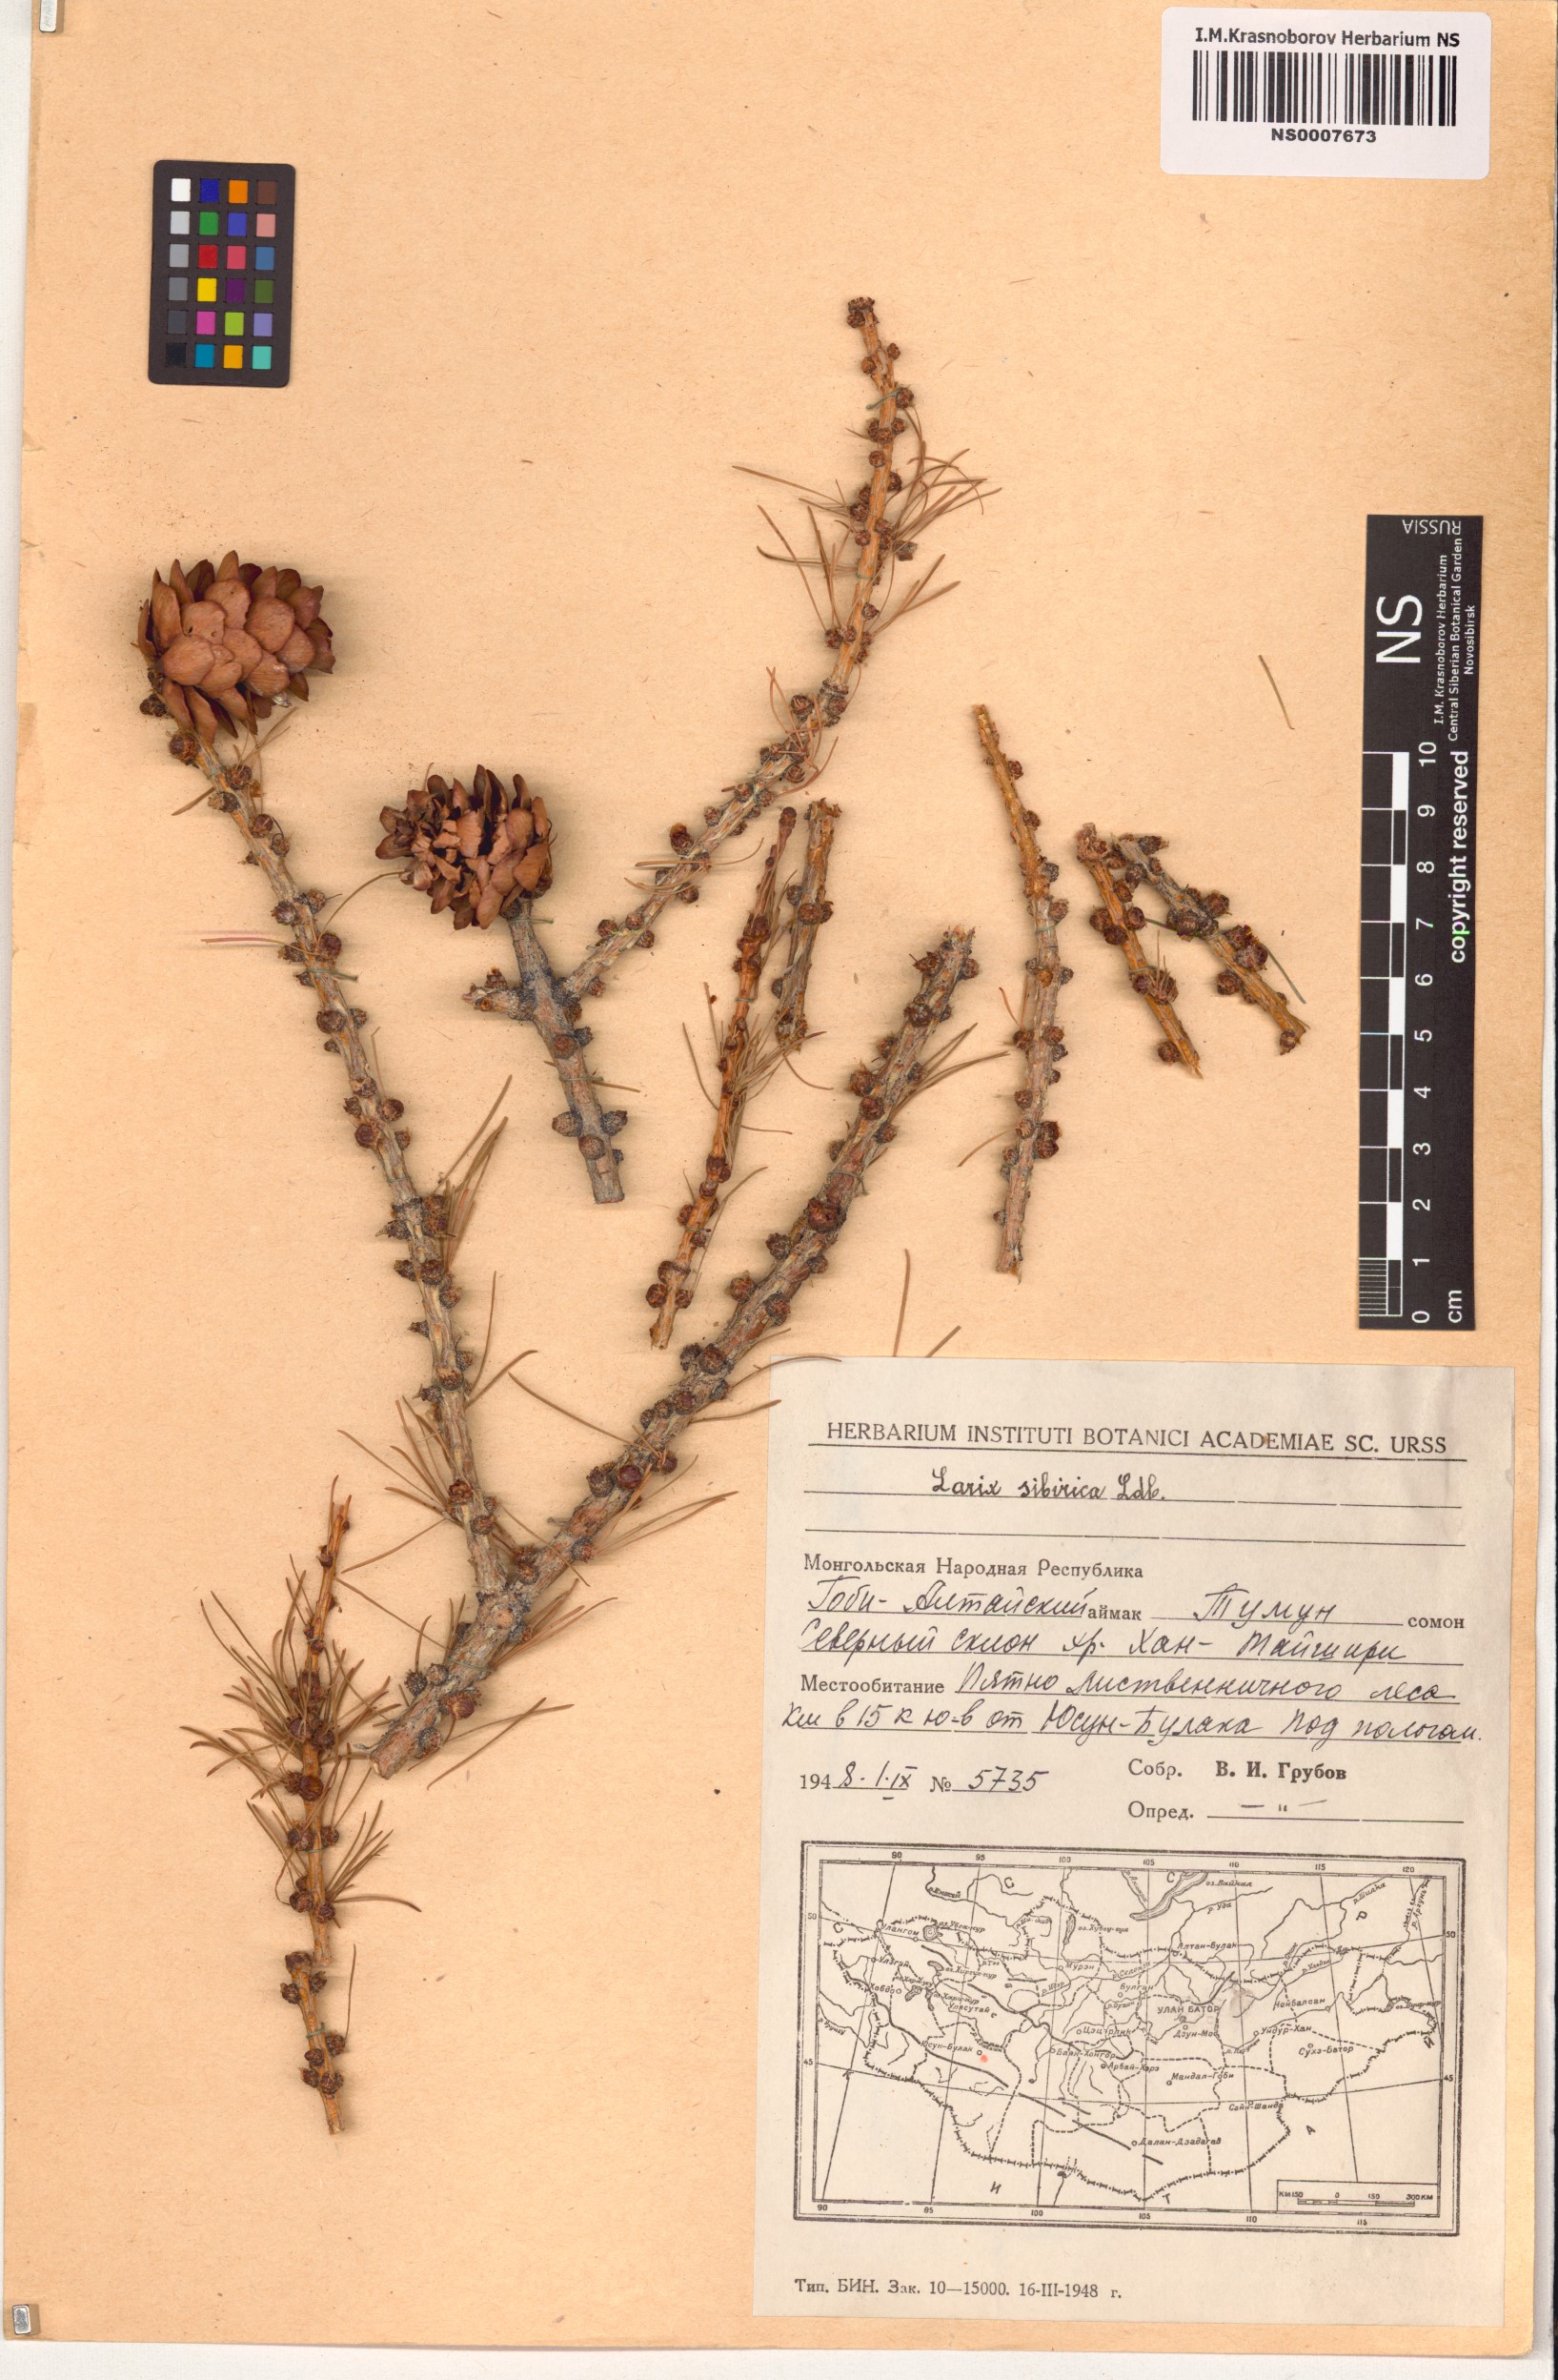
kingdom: Plantae
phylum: Tracheophyta
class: Pinopsida
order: Pinales
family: Pinaceae
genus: Larix
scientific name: Larix sibirica
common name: Siberian larch
